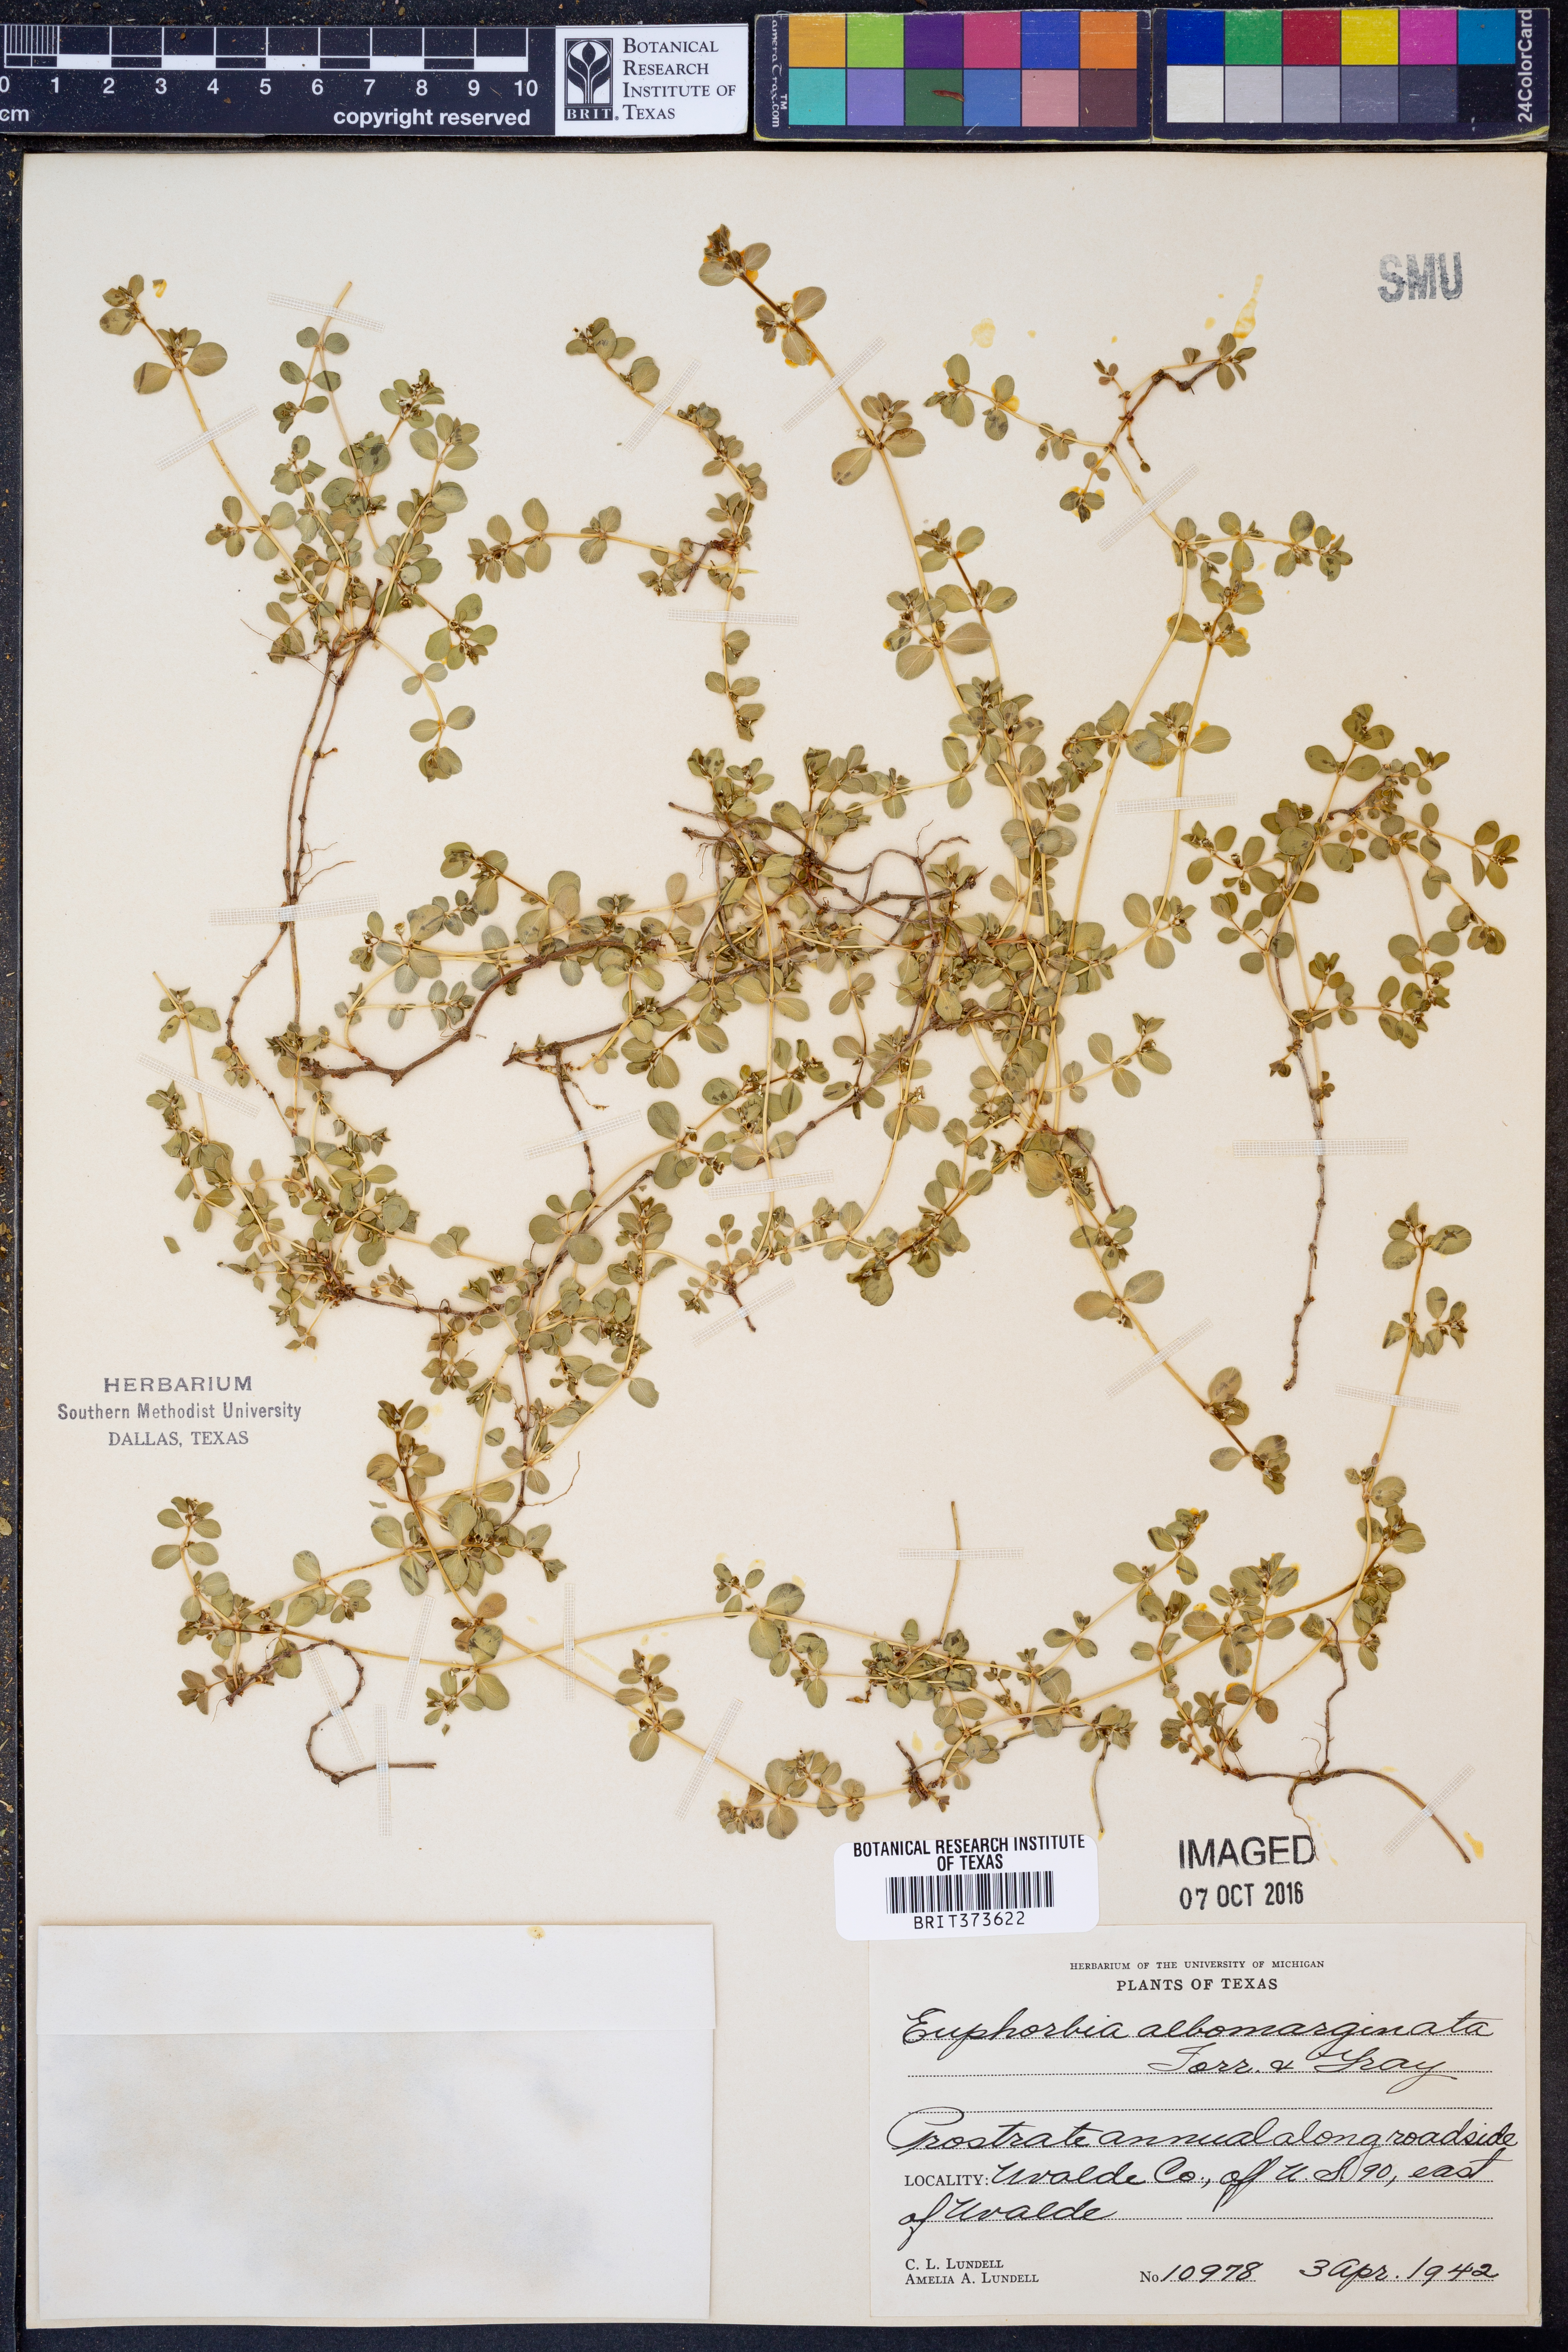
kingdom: Plantae
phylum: Tracheophyta
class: Magnoliopsida
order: Malpighiales
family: Euphorbiaceae
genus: Euphorbia
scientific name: Euphorbia albomarginata
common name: Whitemargin sandmat
